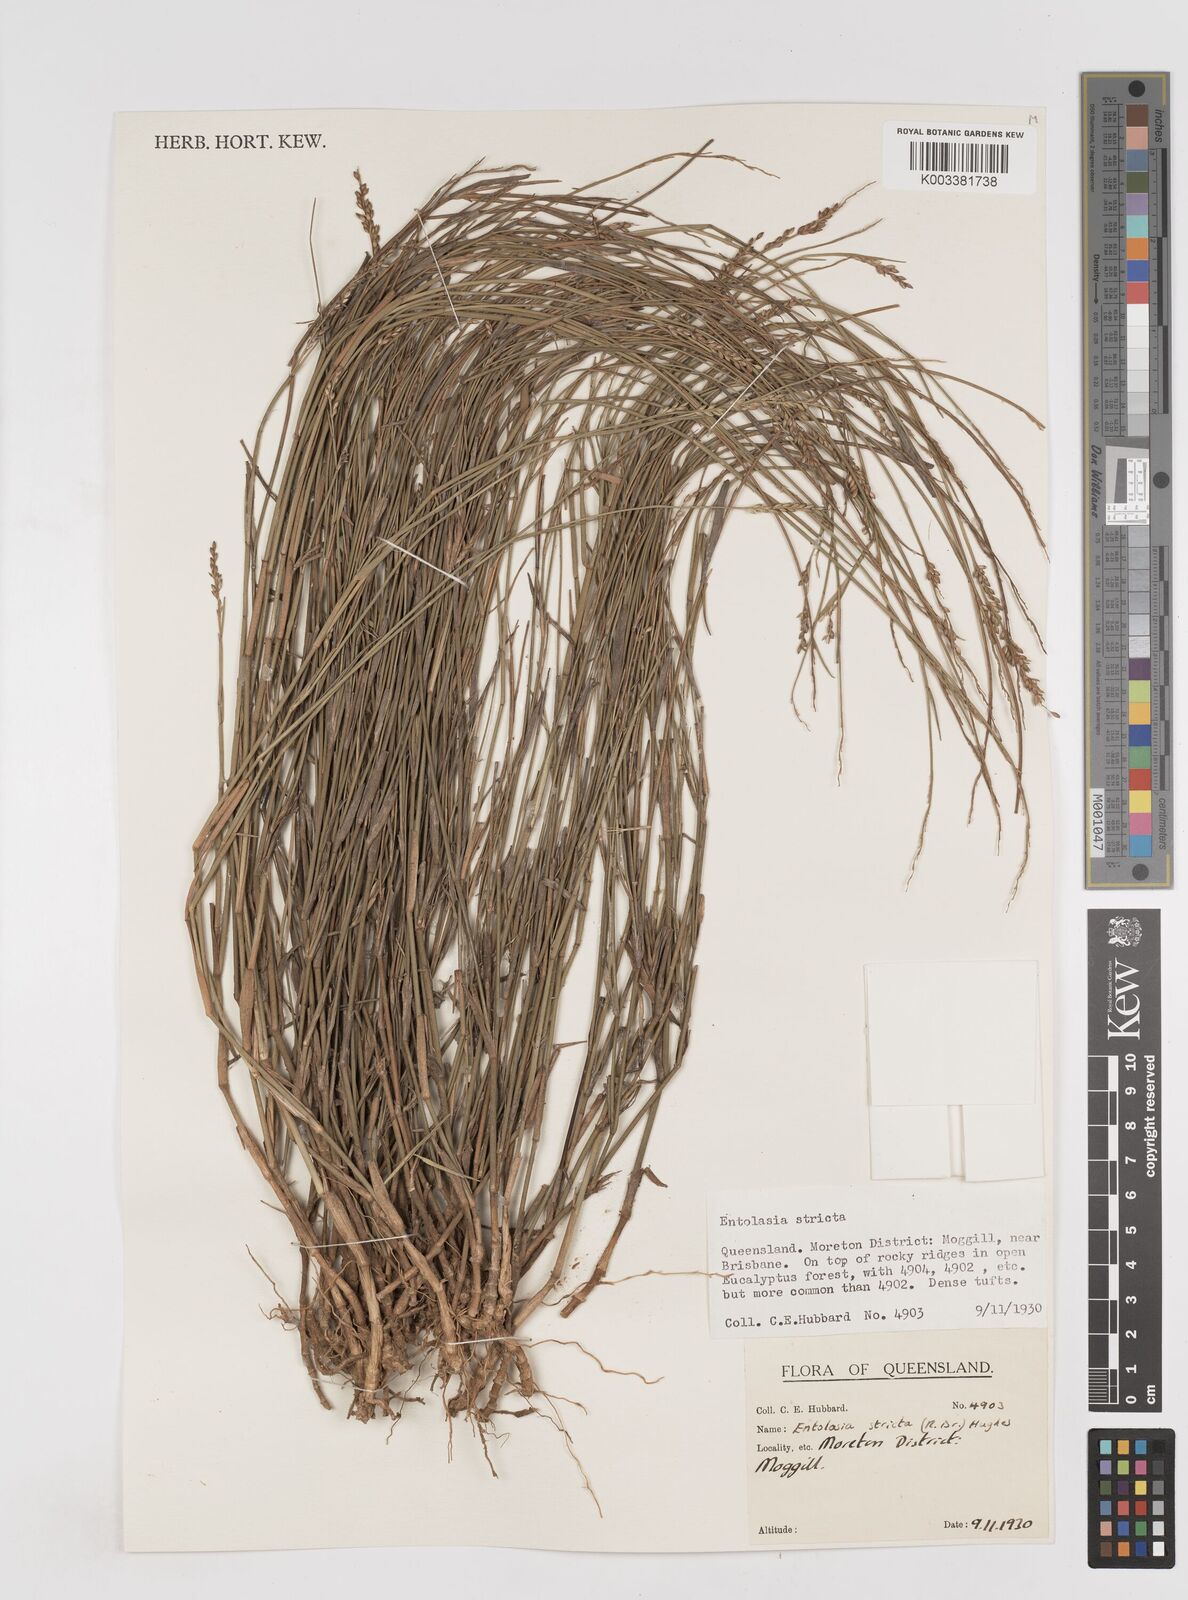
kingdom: Plantae
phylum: Tracheophyta
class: Liliopsida
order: Poales
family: Poaceae
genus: Entolasia
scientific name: Entolasia stricta
